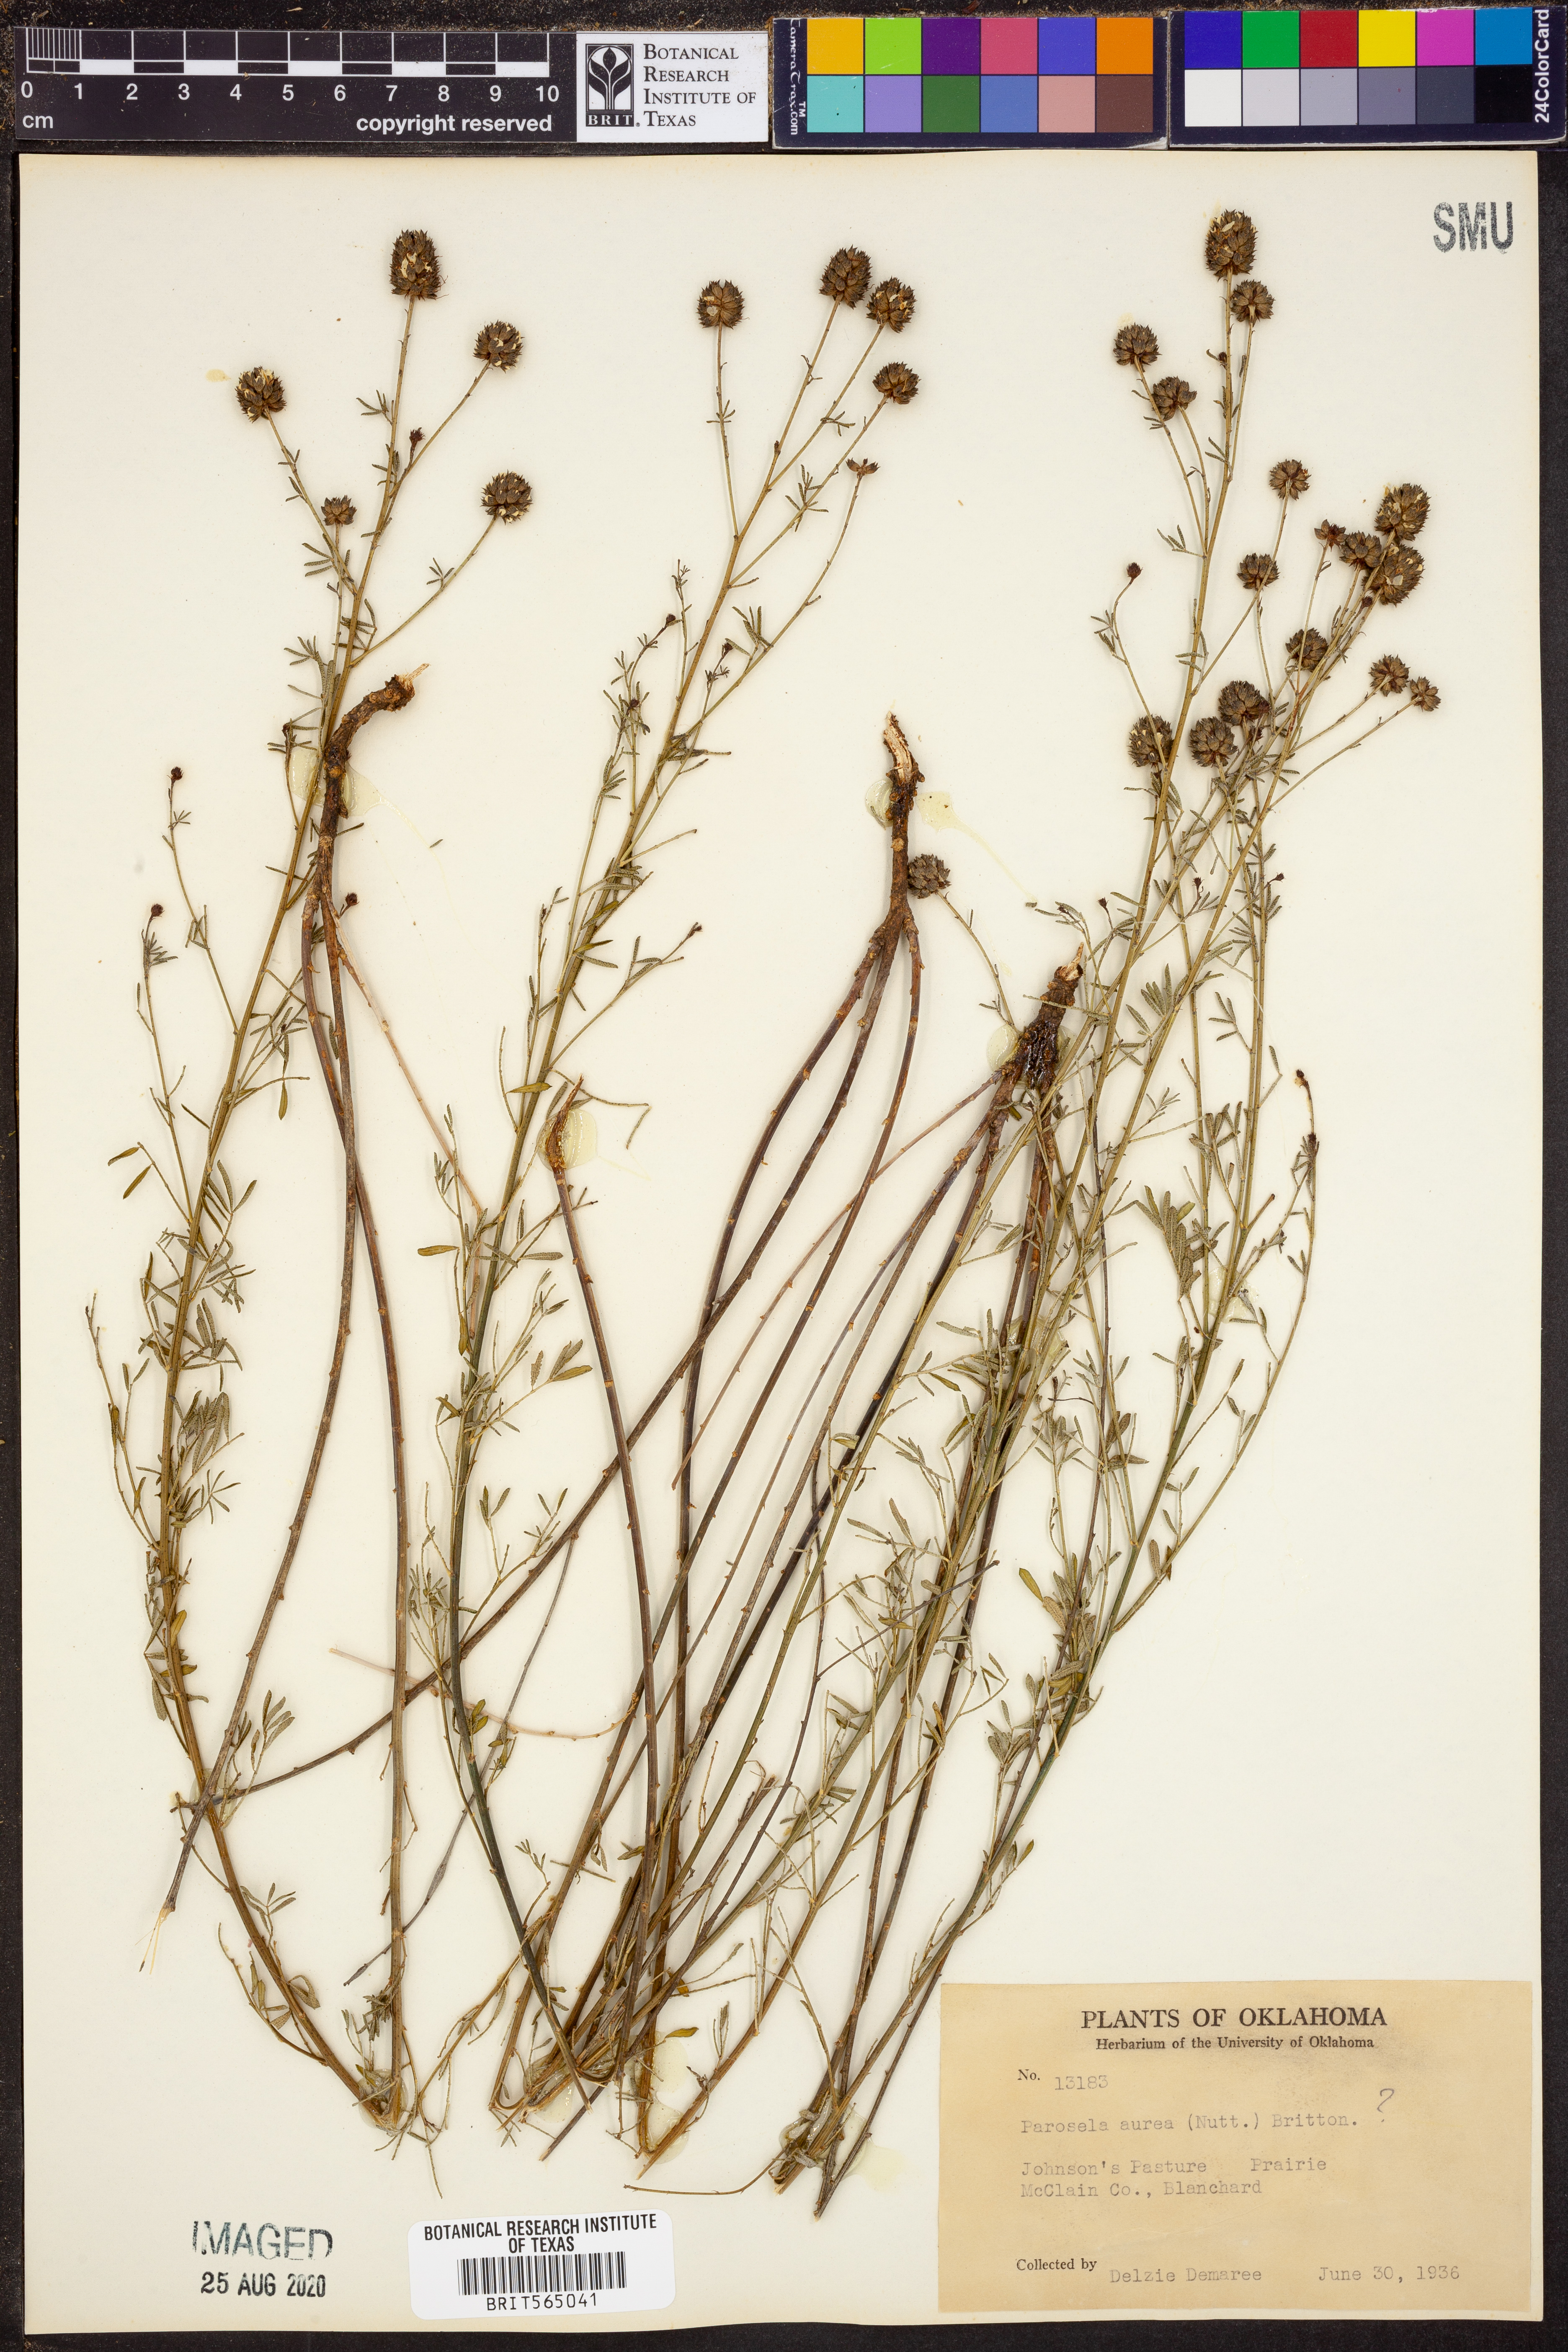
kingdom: Plantae
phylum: Tracheophyta
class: Magnoliopsida
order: Fabales
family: Fabaceae
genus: Dalea
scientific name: Dalea aurea
